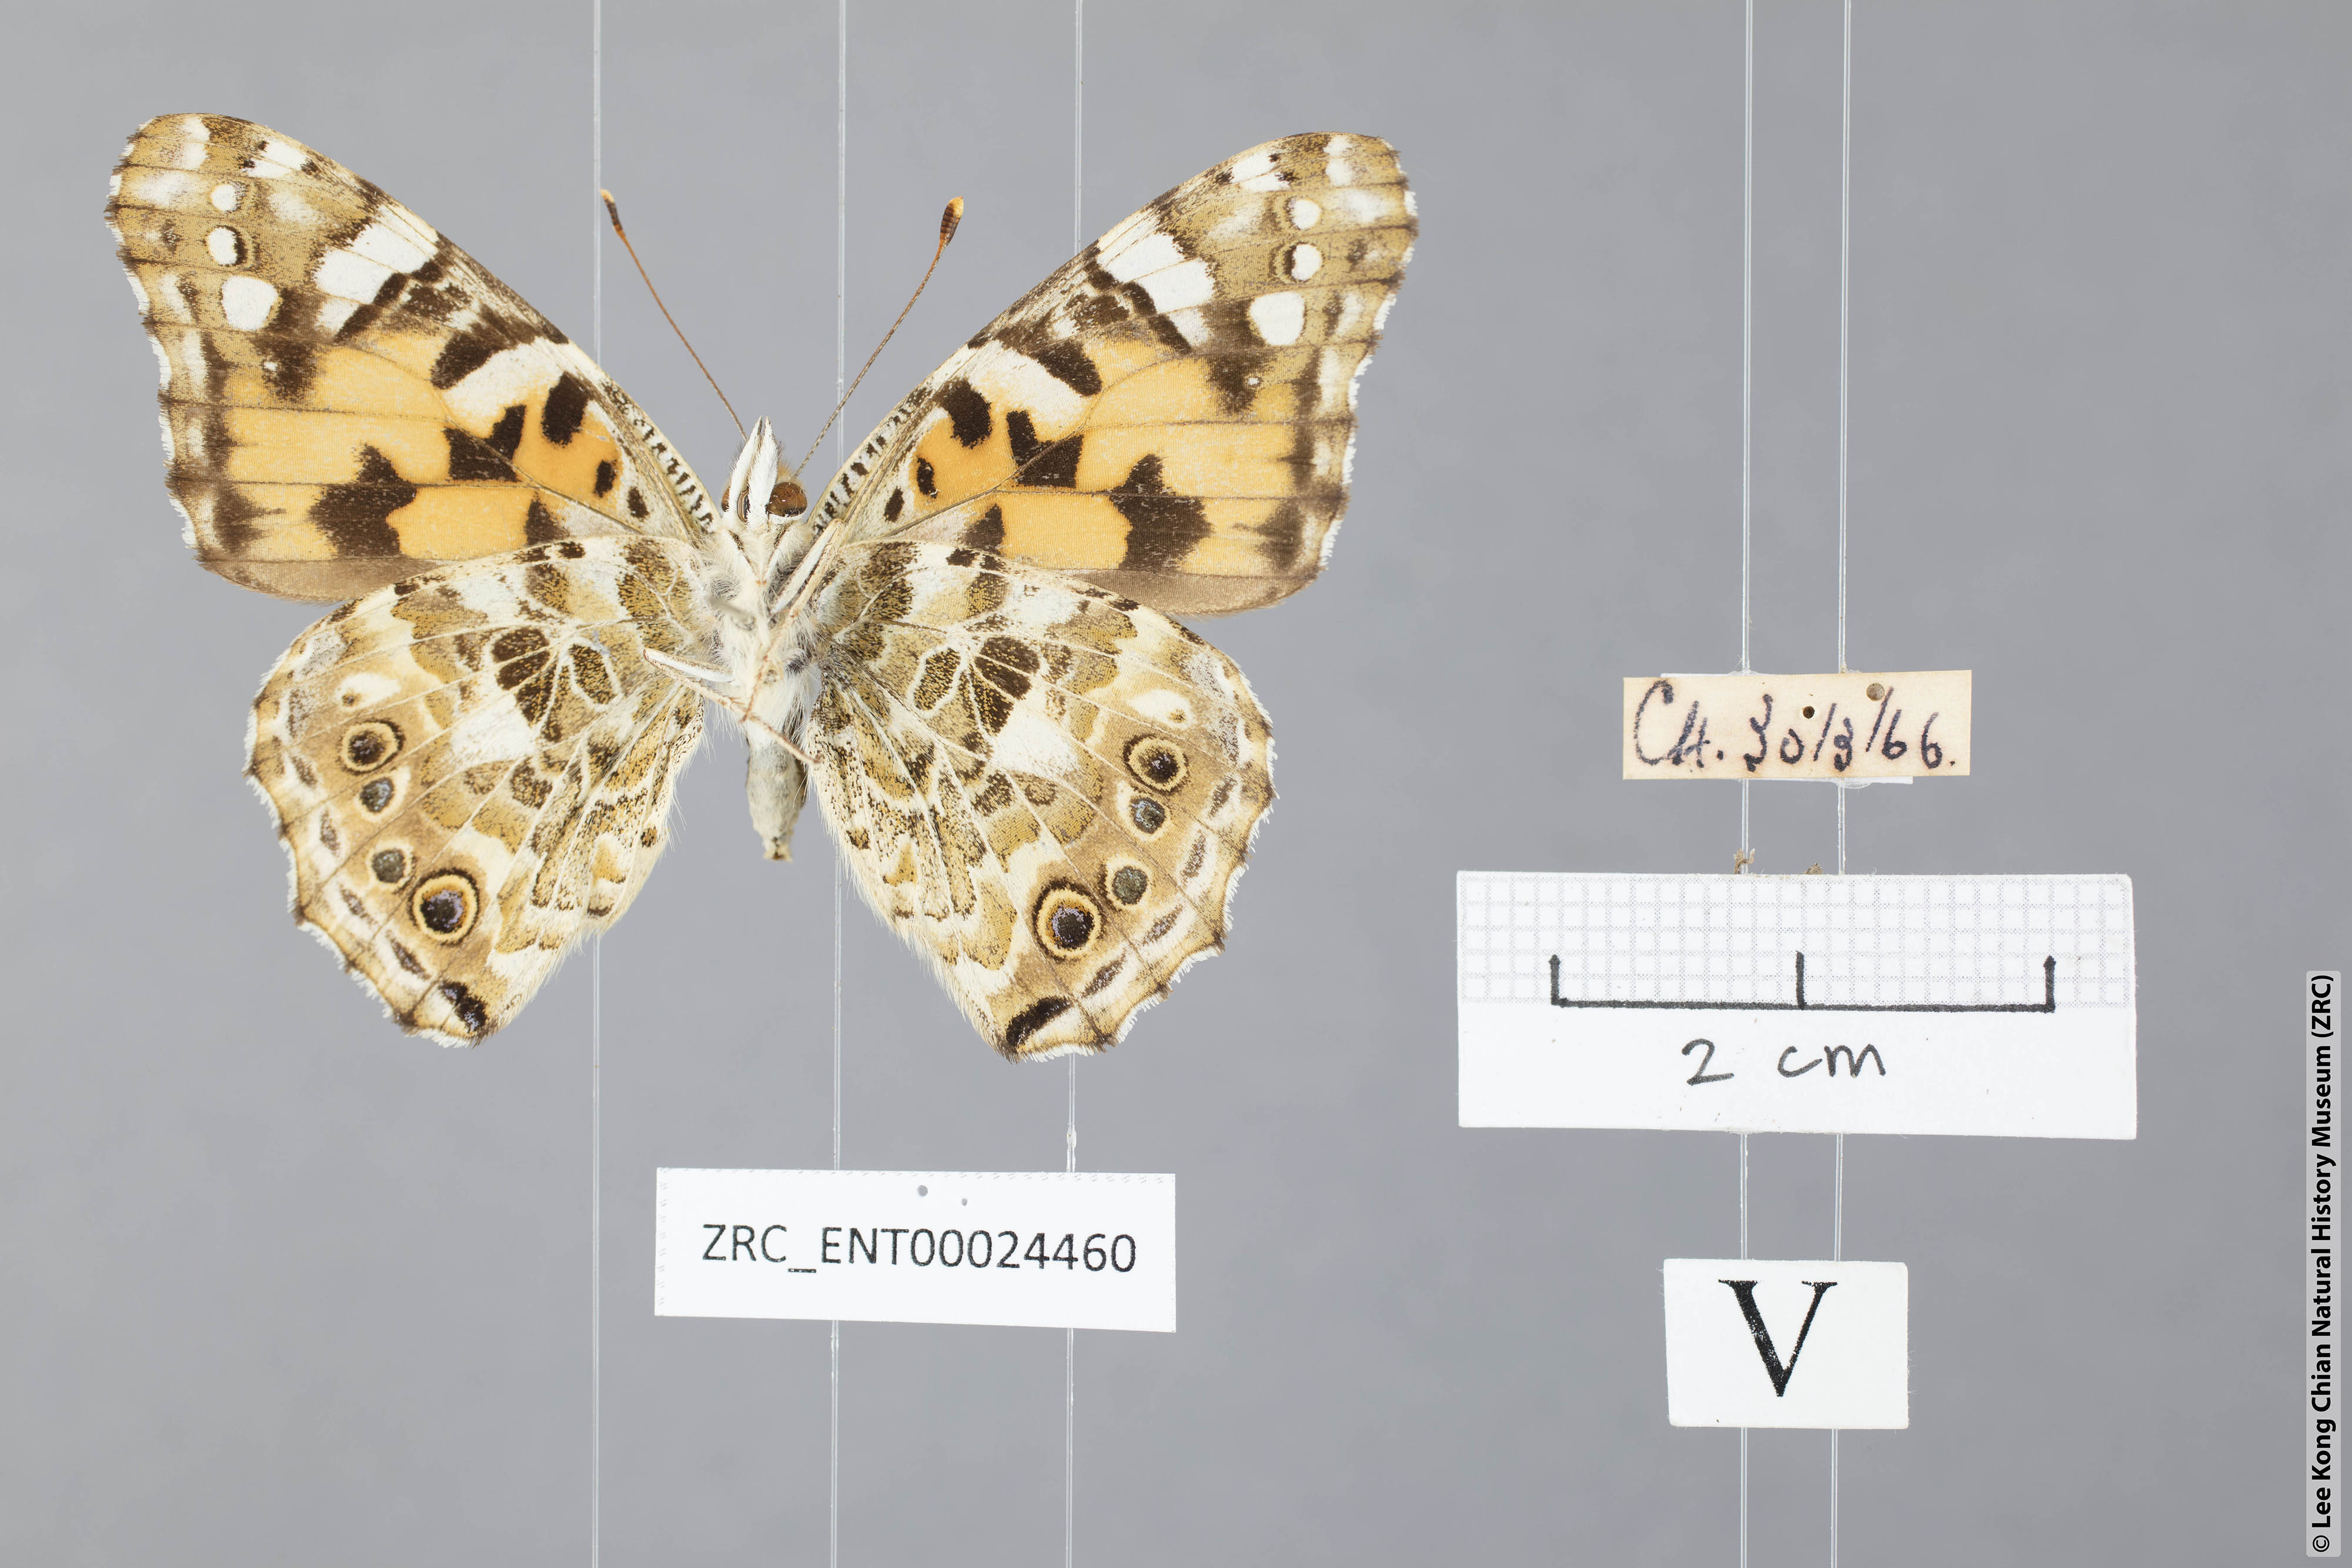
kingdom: Animalia
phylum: Arthropoda
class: Insecta
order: Lepidoptera
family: Nymphalidae
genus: Vanessa
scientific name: Vanessa cardui
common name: Painted lady
